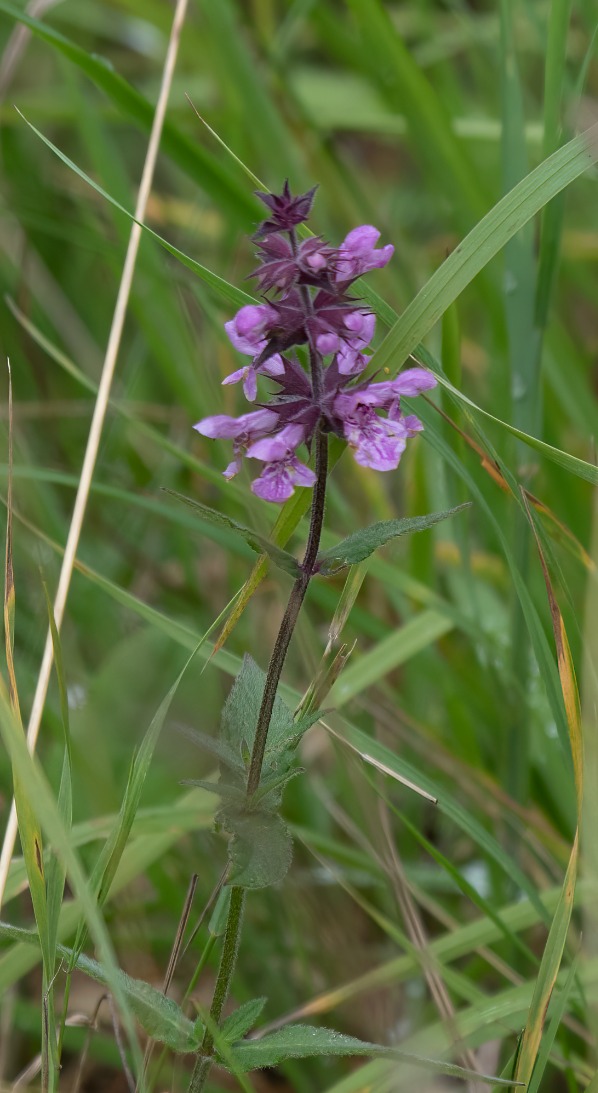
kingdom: Plantae
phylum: Tracheophyta
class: Magnoliopsida
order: Lamiales
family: Lamiaceae
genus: Stachys
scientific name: Stachys palustris
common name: Kær-galtetand
